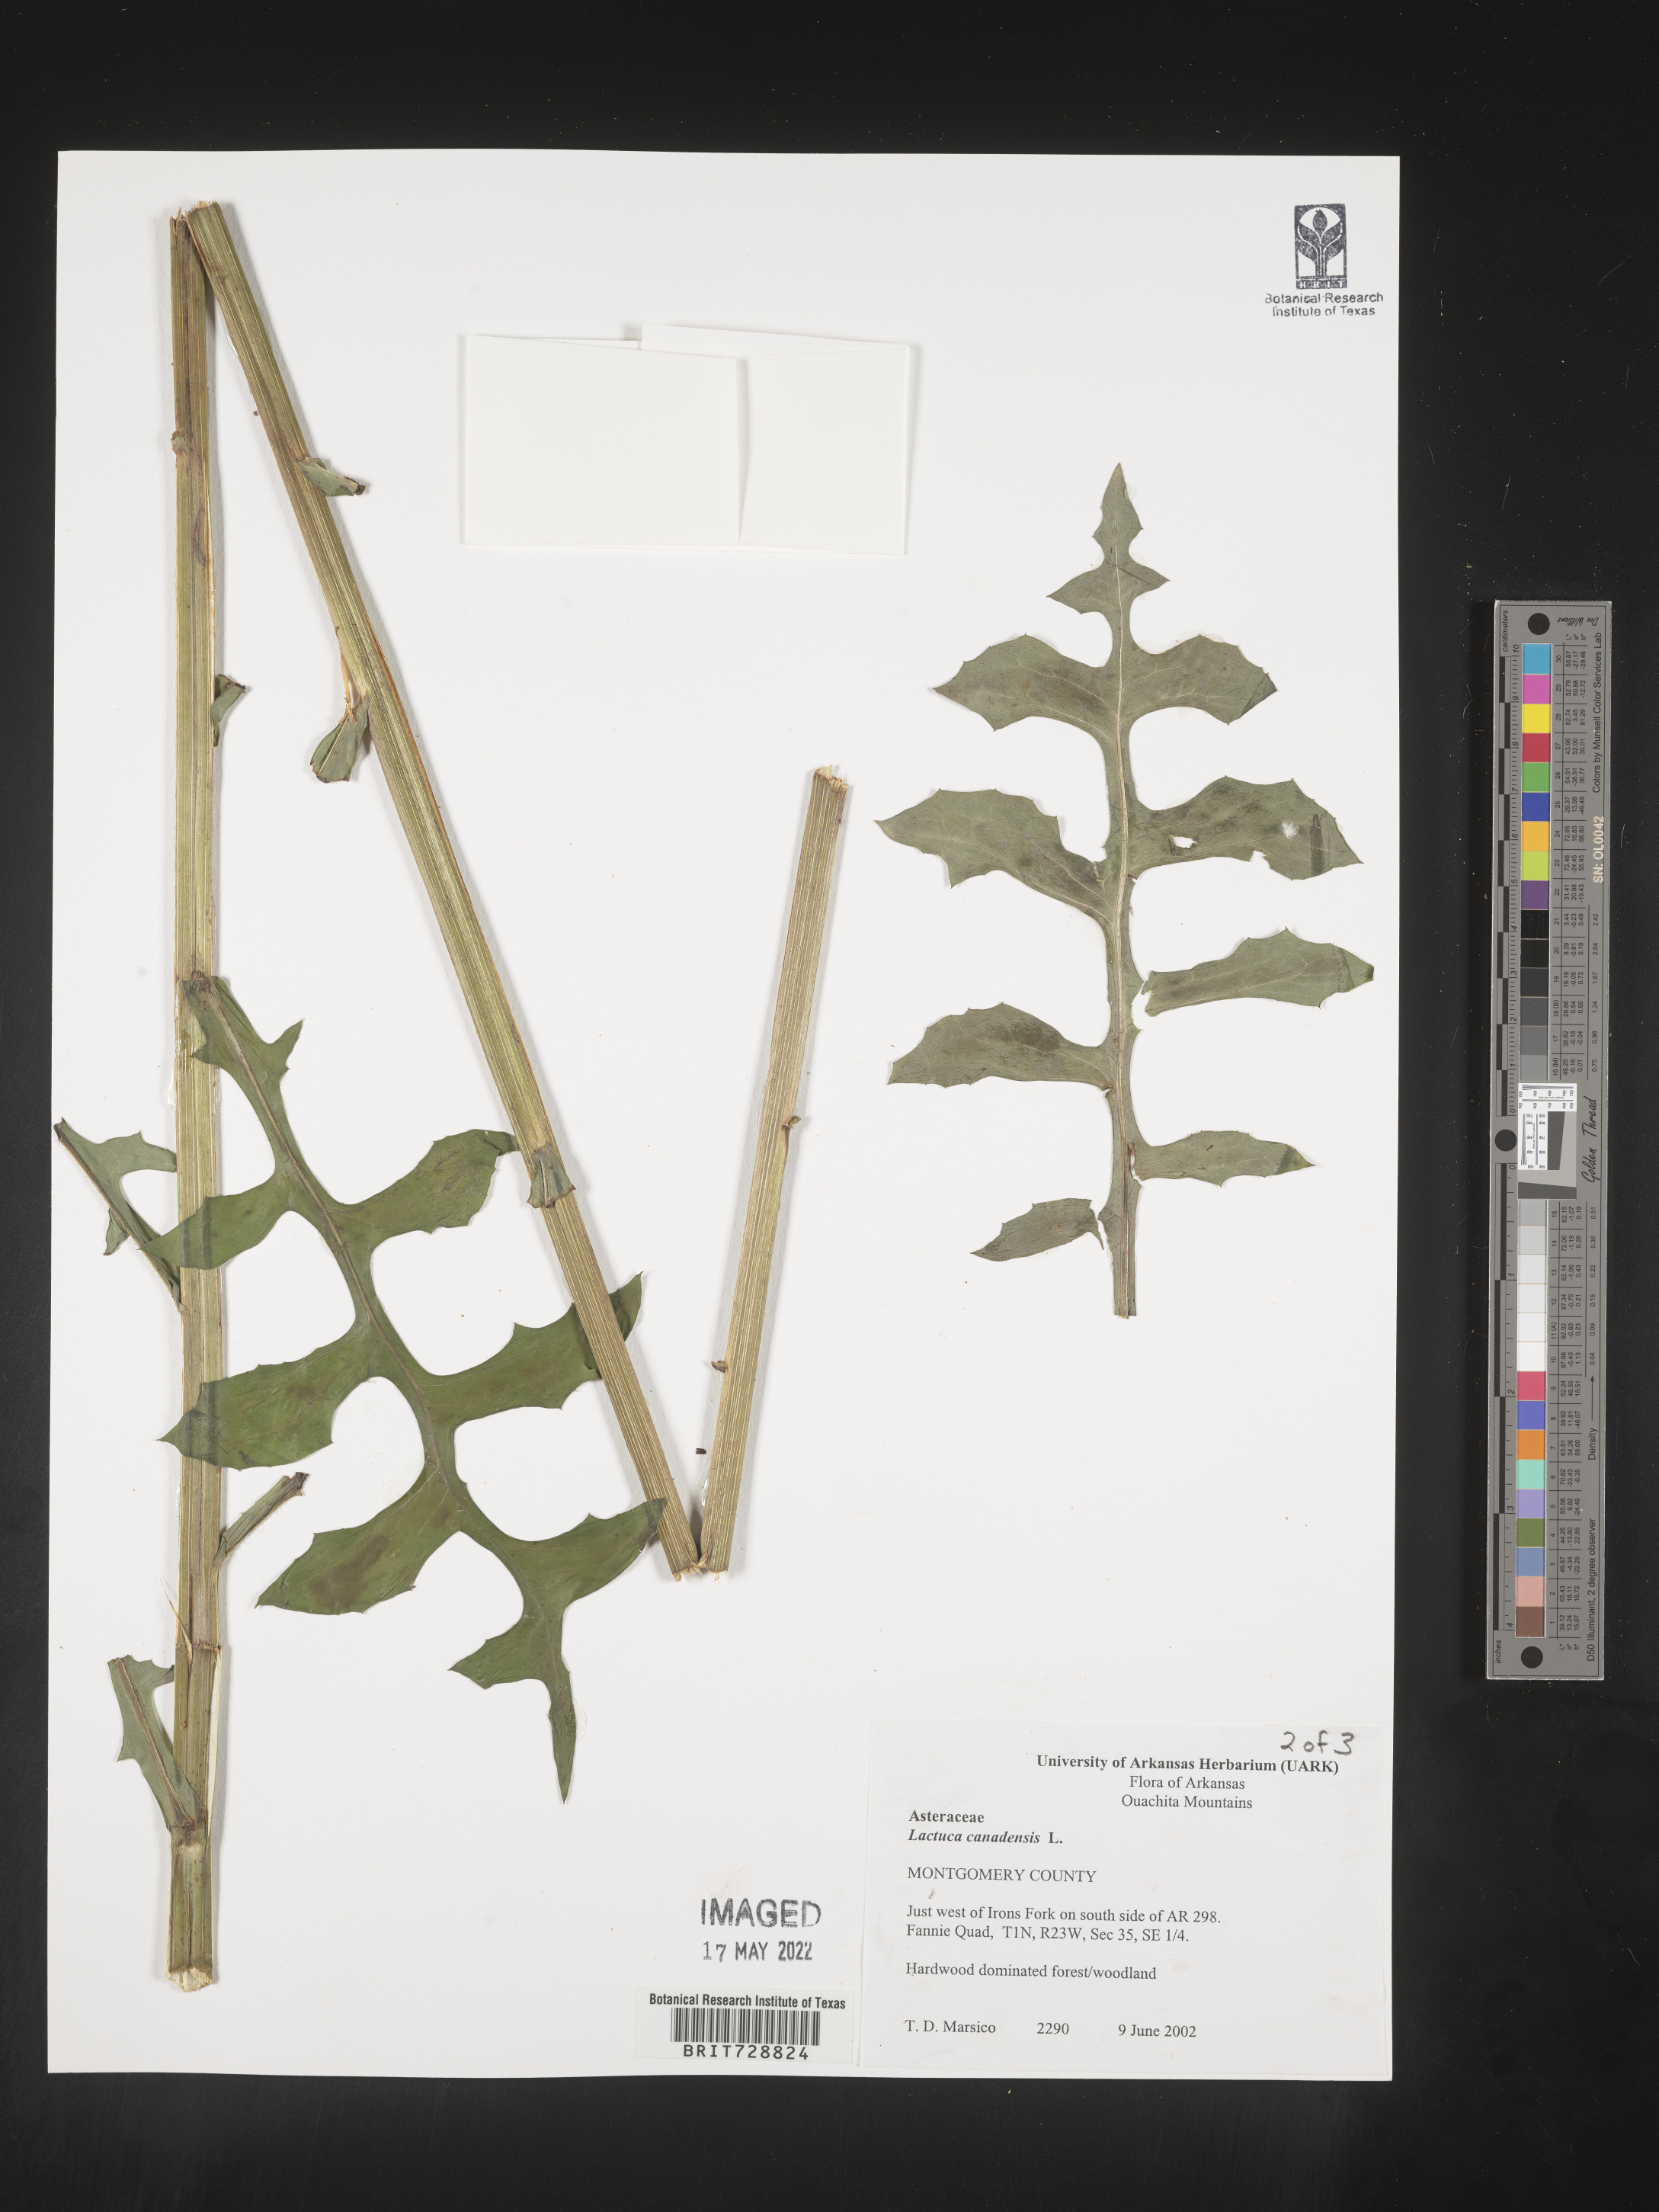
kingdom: Plantae
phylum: Tracheophyta
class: Magnoliopsida
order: Asterales
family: Asteraceae
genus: Lactuca
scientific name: Lactuca canadensis
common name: Canada lettuce
